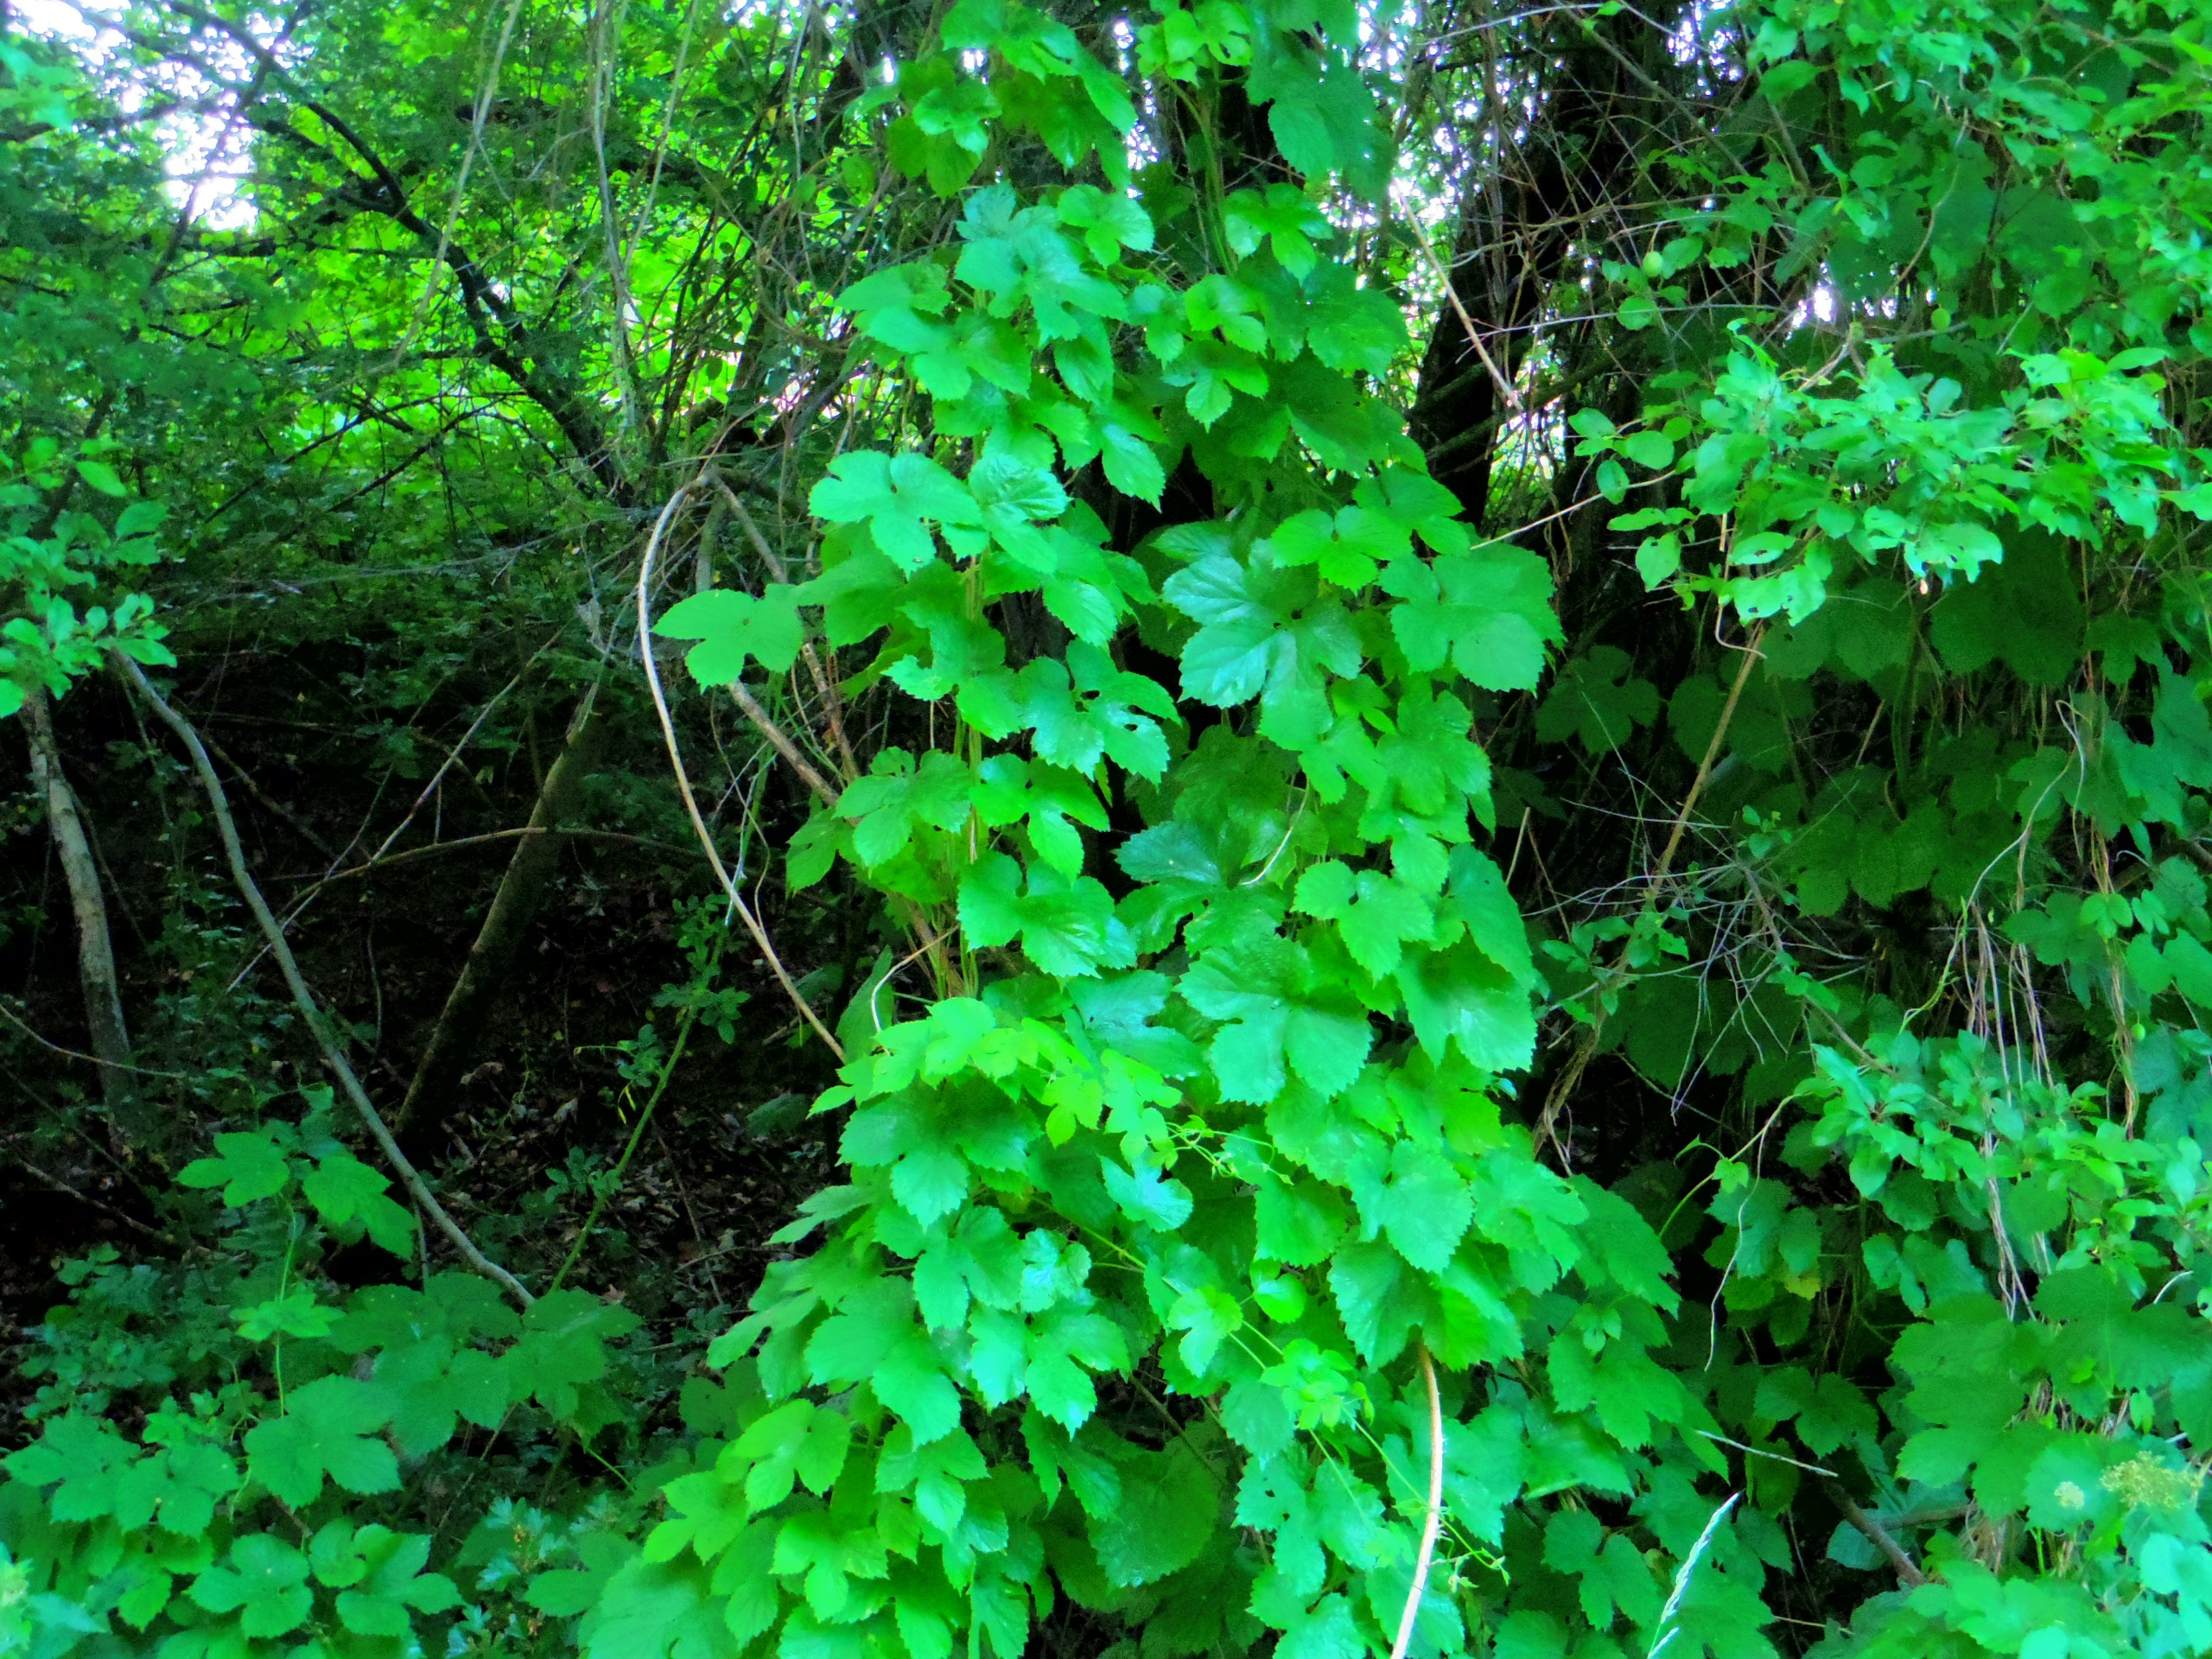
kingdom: Plantae
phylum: Tracheophyta
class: Magnoliopsida
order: Rosales
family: Cannabaceae
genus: Humulus
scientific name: Humulus lupulus
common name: Humle
